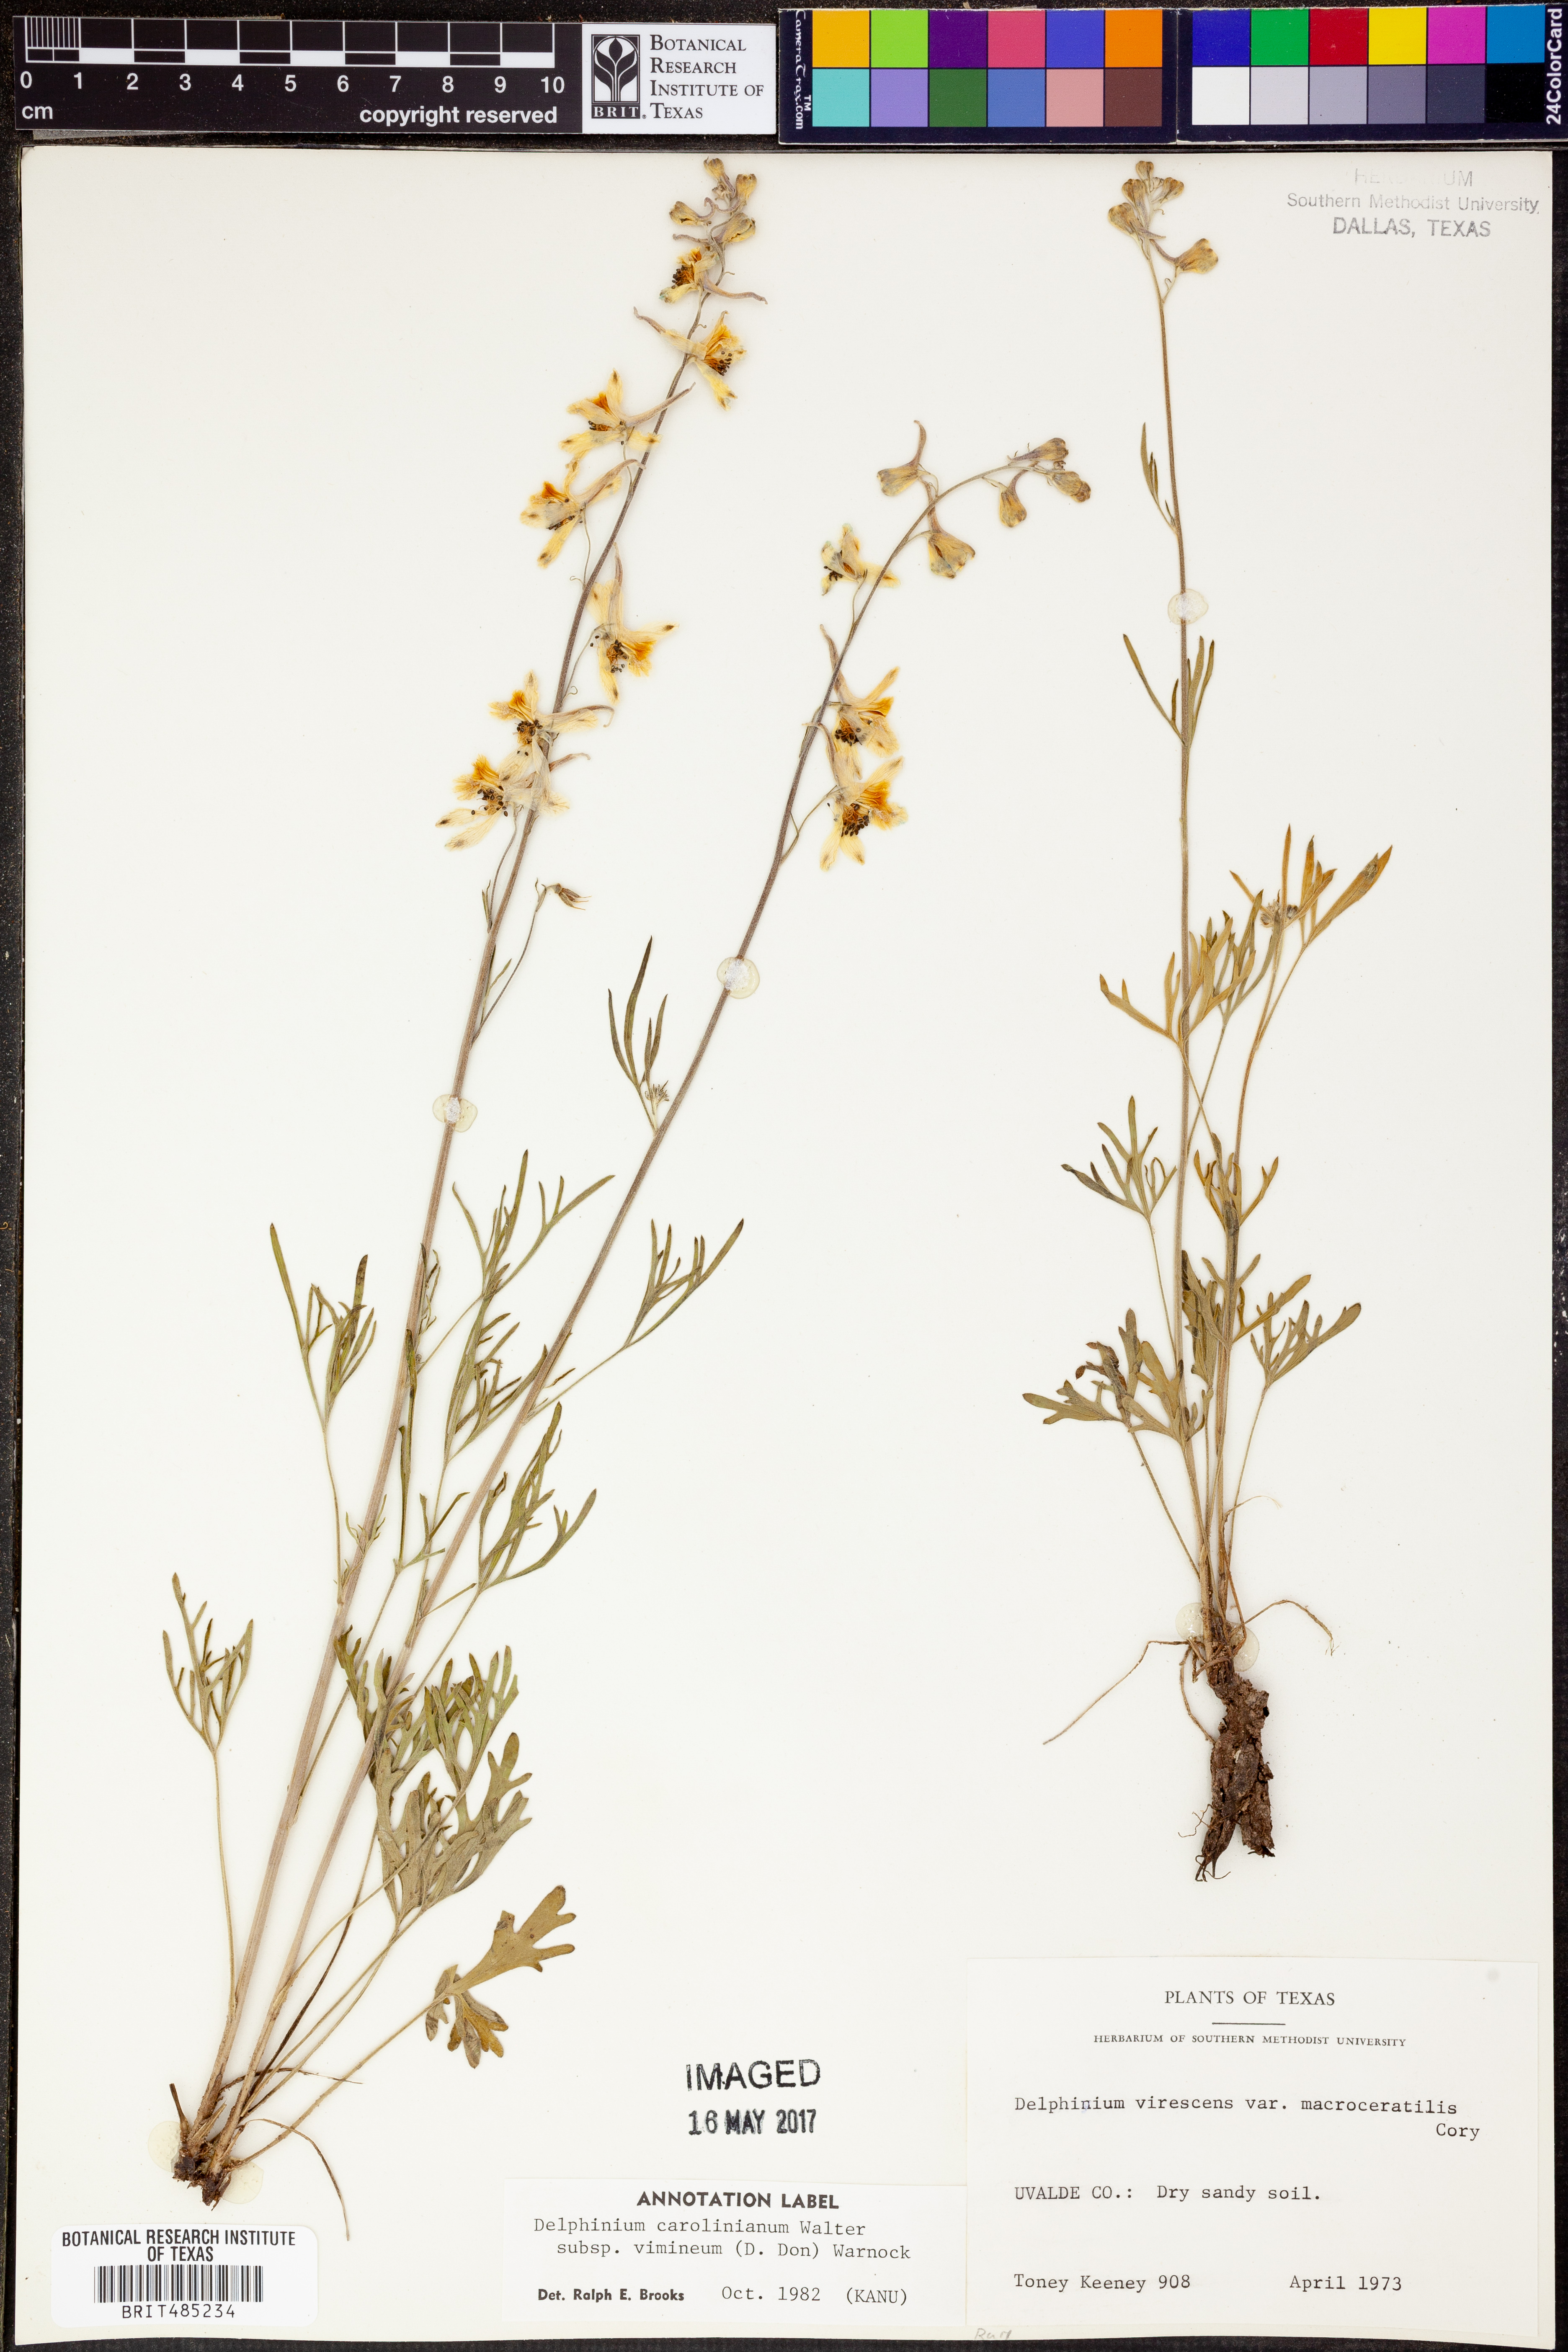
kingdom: Plantae
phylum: Tracheophyta
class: Magnoliopsida
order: Ranunculales
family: Ranunculaceae
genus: Delphinium
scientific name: Delphinium carolinianum
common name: Carolina larkspur
